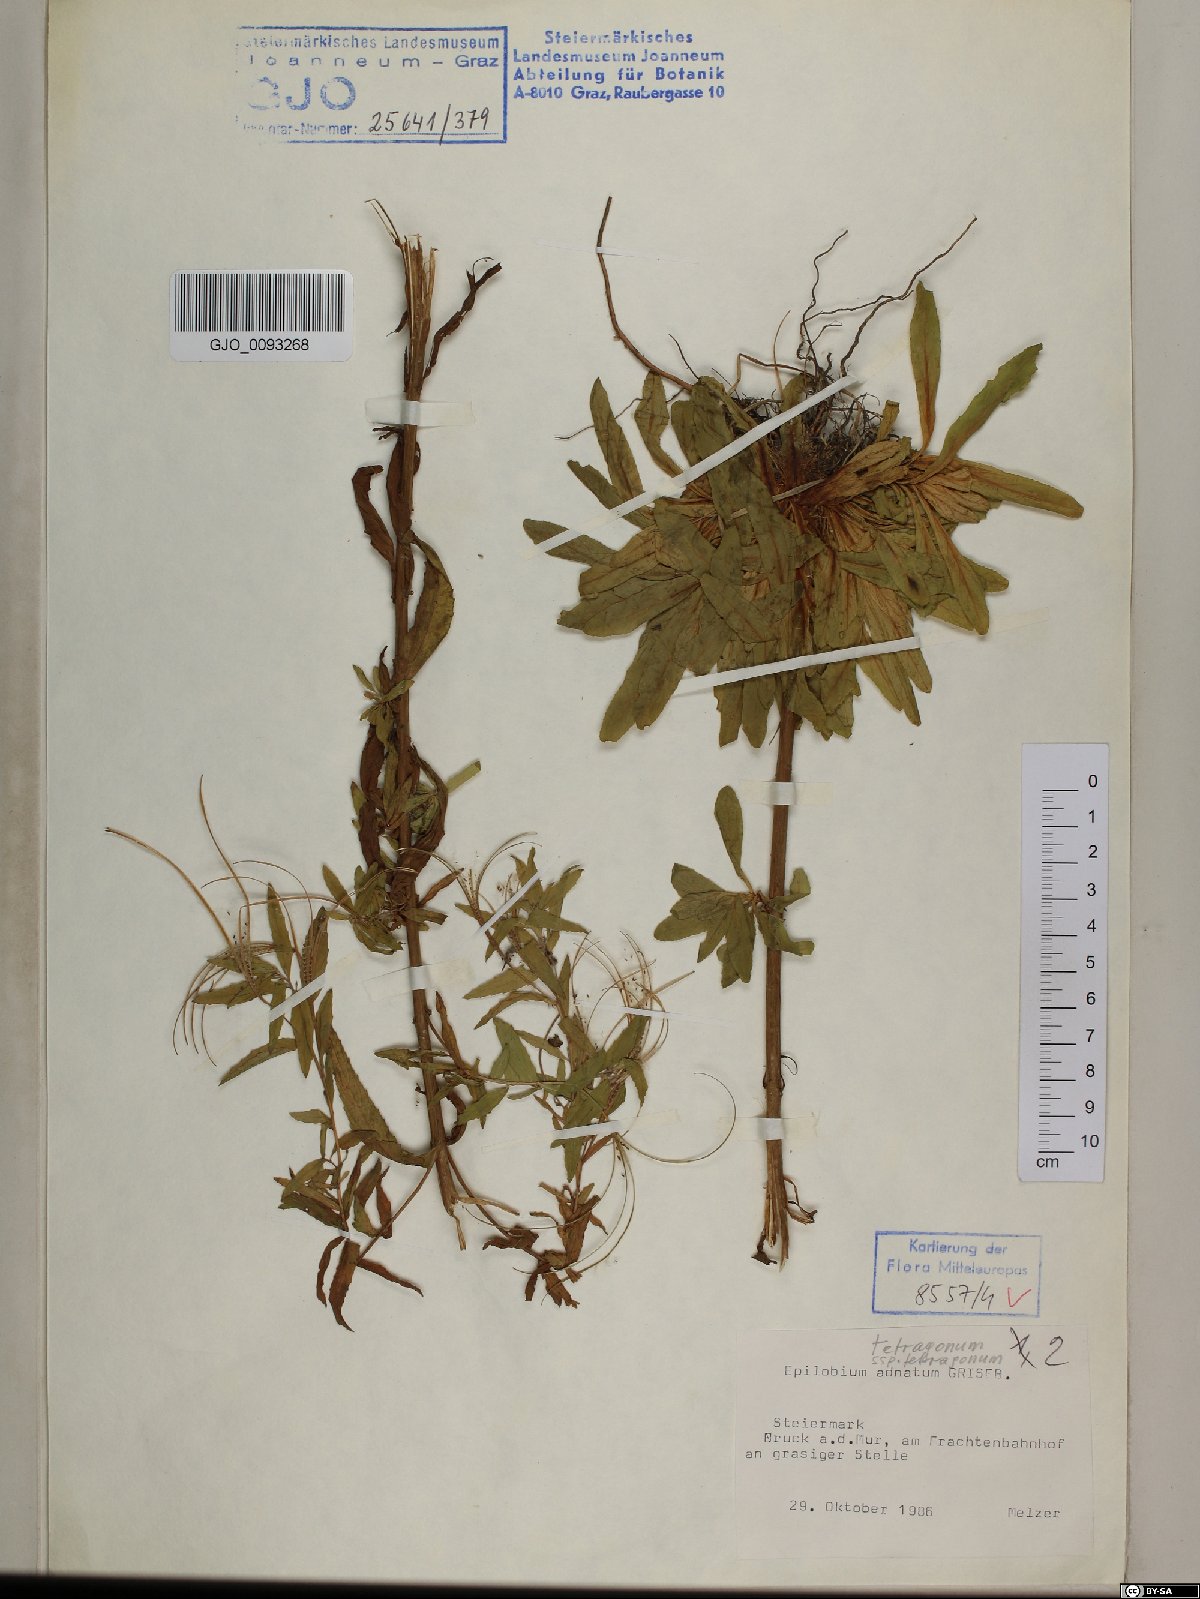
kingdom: Plantae
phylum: Tracheophyta
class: Magnoliopsida
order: Myrtales
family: Onagraceae
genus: Epilobium
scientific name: Epilobium tetragonum
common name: Square-stemmed willowherb
